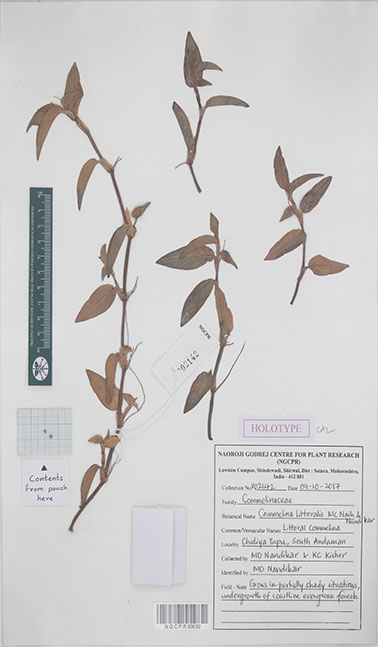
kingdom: Plantae
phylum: Tracheophyta
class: Liliopsida
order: Commelinales
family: Commelinaceae
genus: Commelina
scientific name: Commelina littoralis
